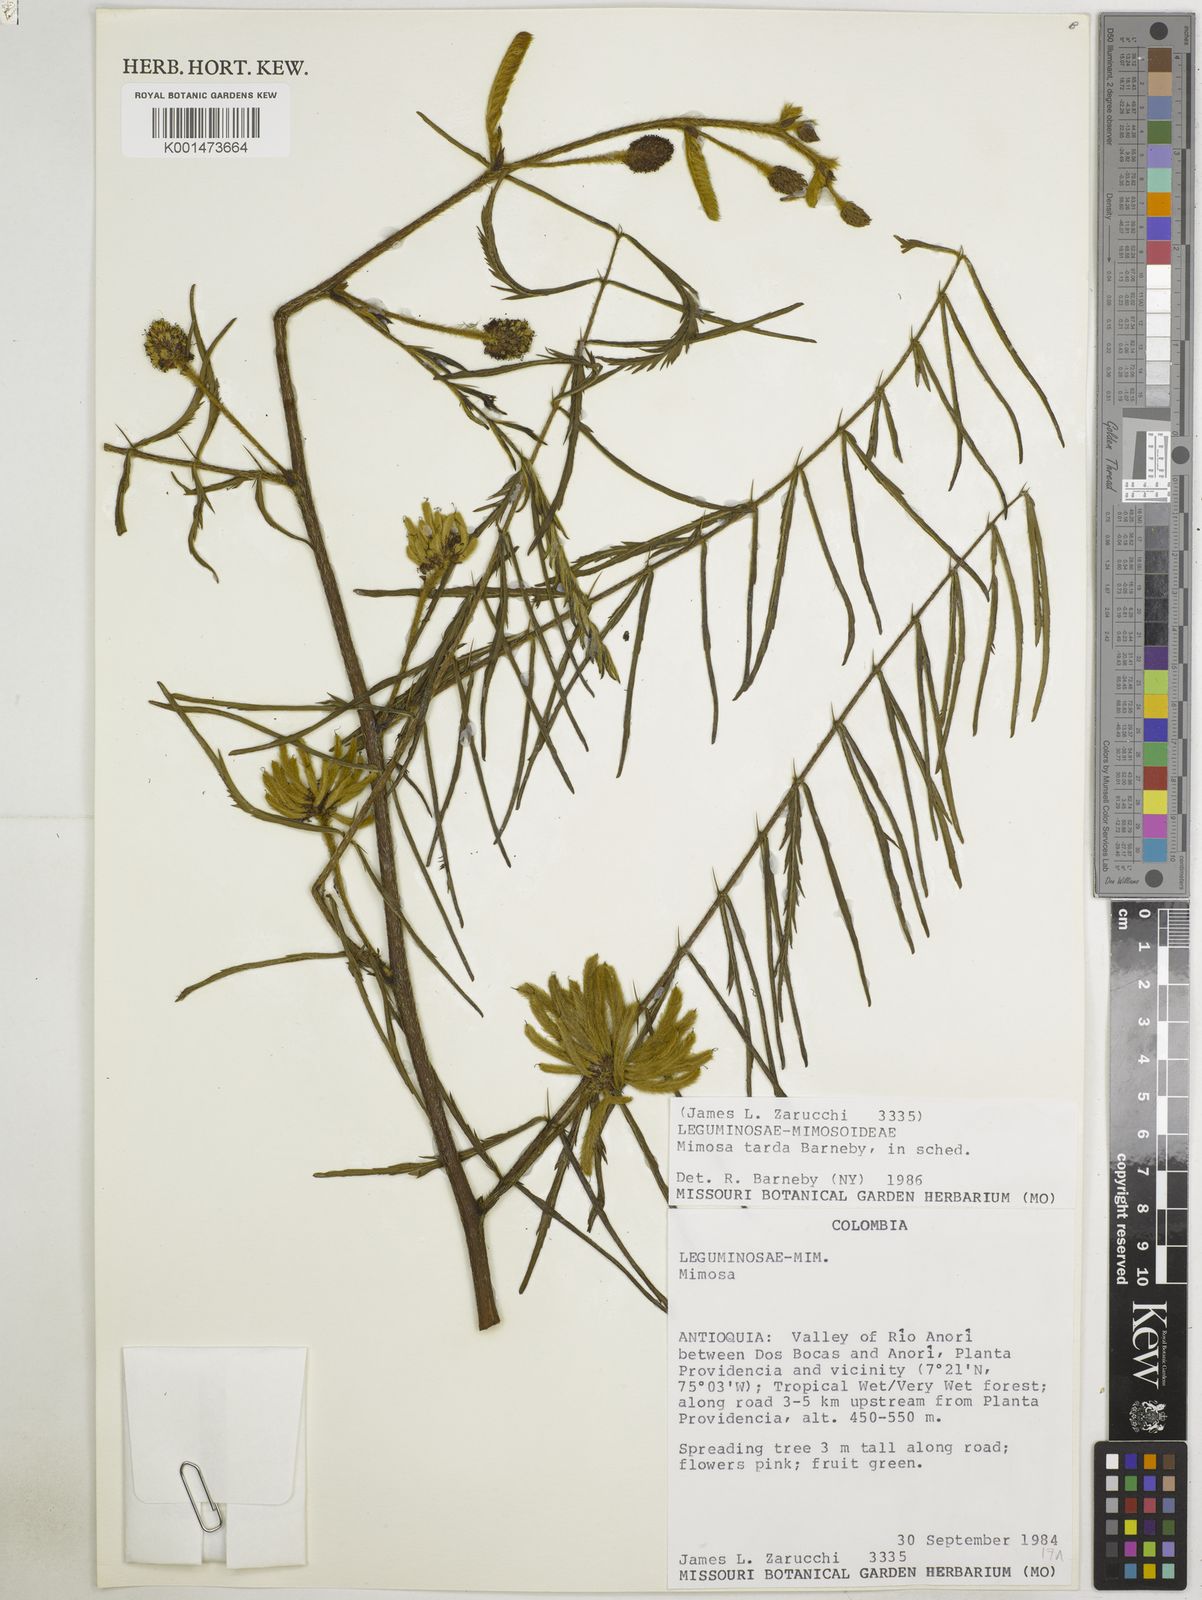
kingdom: Plantae
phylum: Tracheophyta
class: Magnoliopsida
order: Fabales
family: Fabaceae
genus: Mimosa
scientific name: Mimosa tarda
